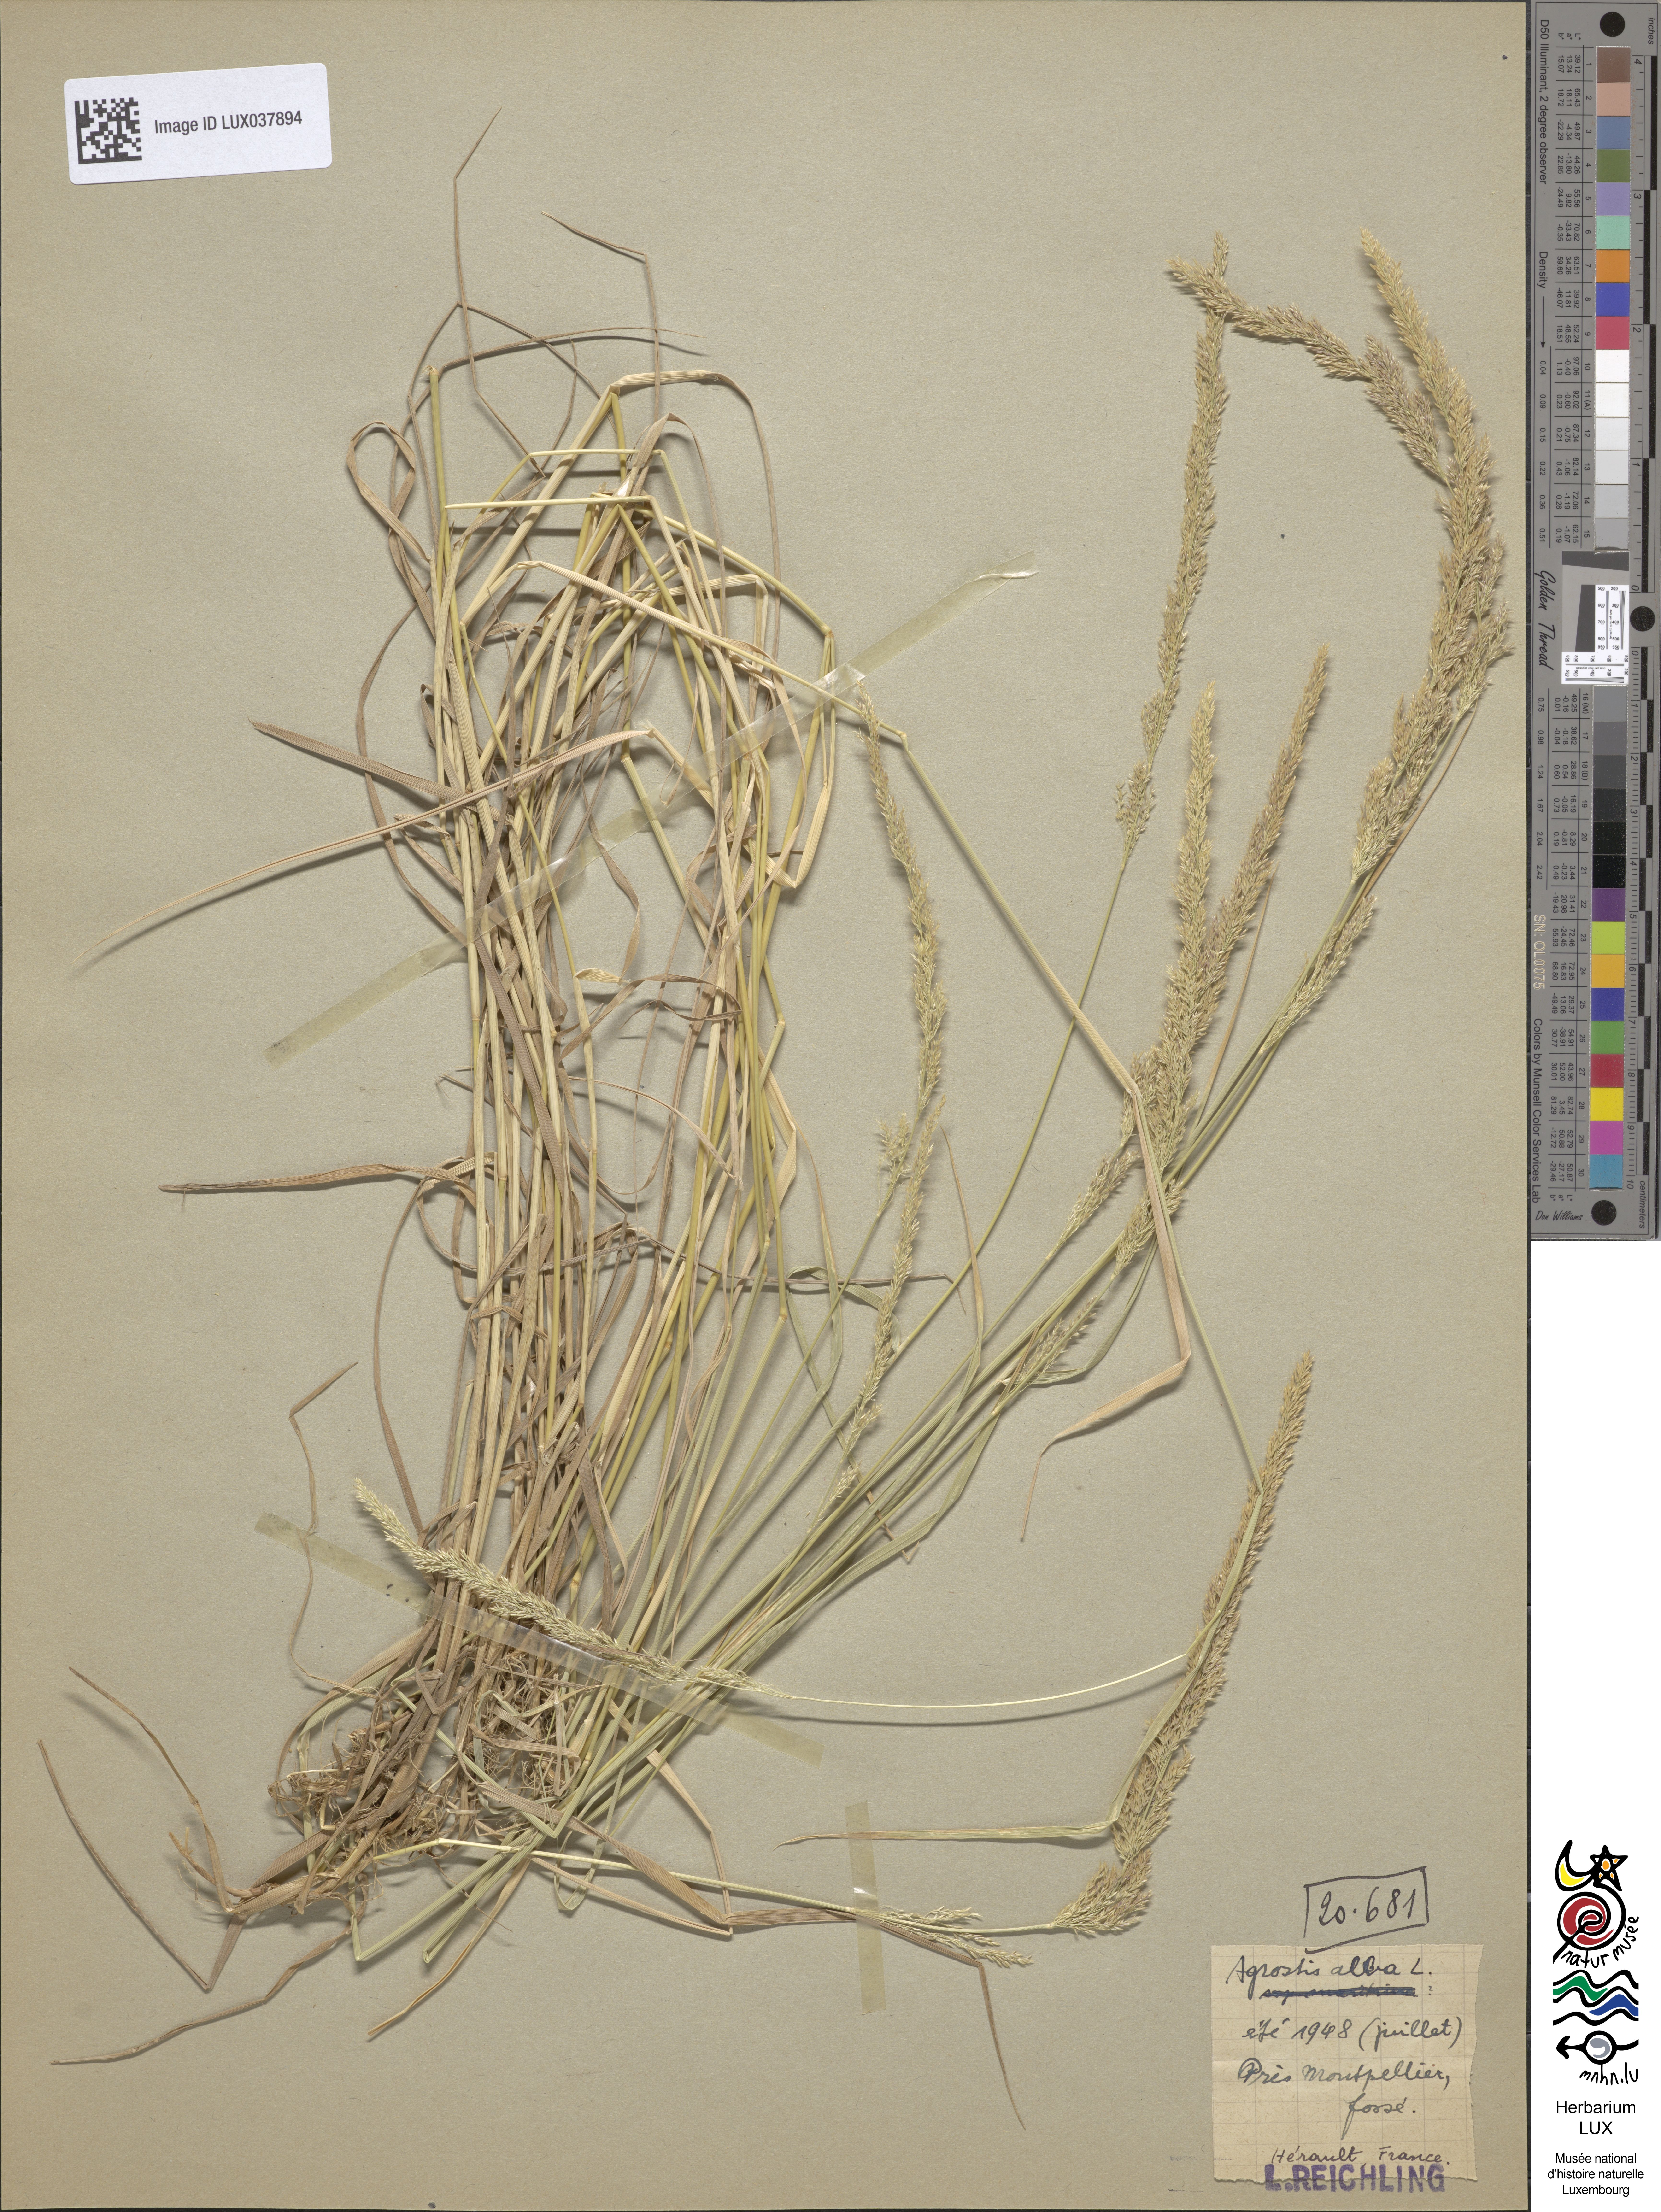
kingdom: Plantae
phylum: Tracheophyta
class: Liliopsida
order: Poales
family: Poaceae
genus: Poa
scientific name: Poa nemoralis
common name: Wood bluegrass
